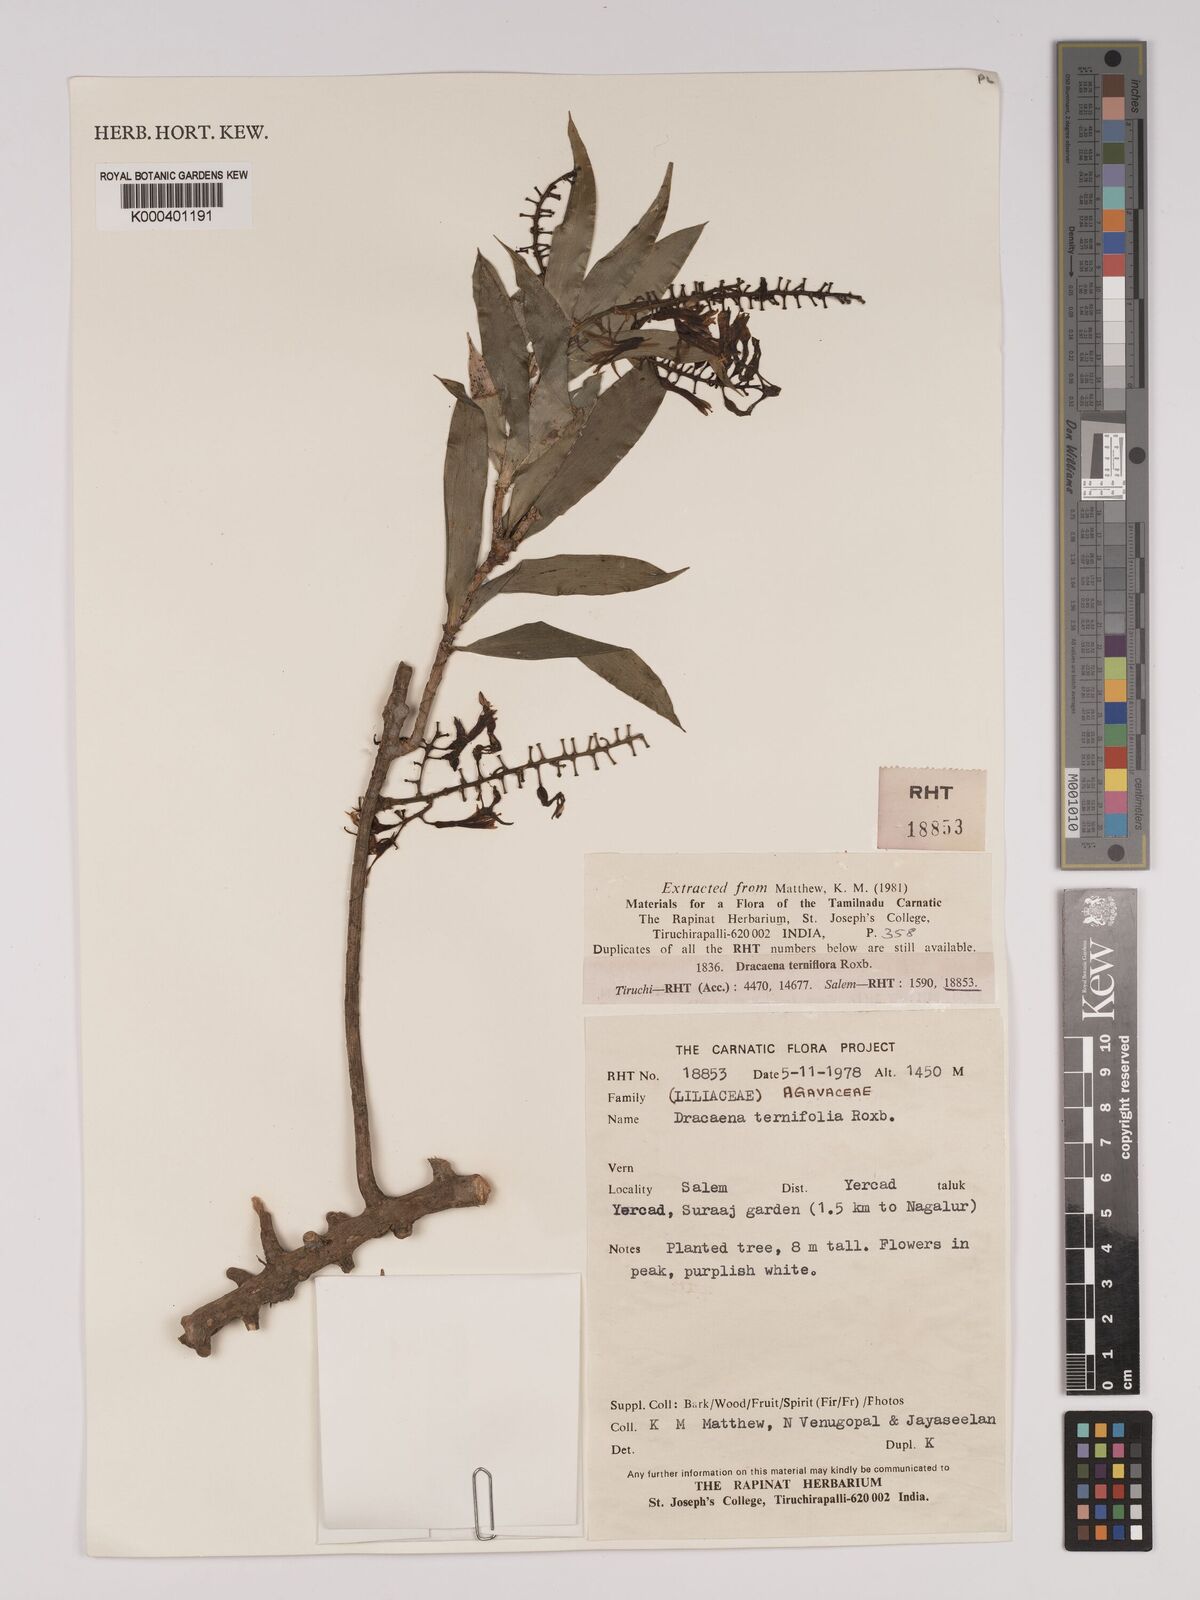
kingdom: Plantae
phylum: Tracheophyta
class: Liliopsida
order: Asparagales
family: Asparagaceae
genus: Dracaena
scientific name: Dracaena terniflora
